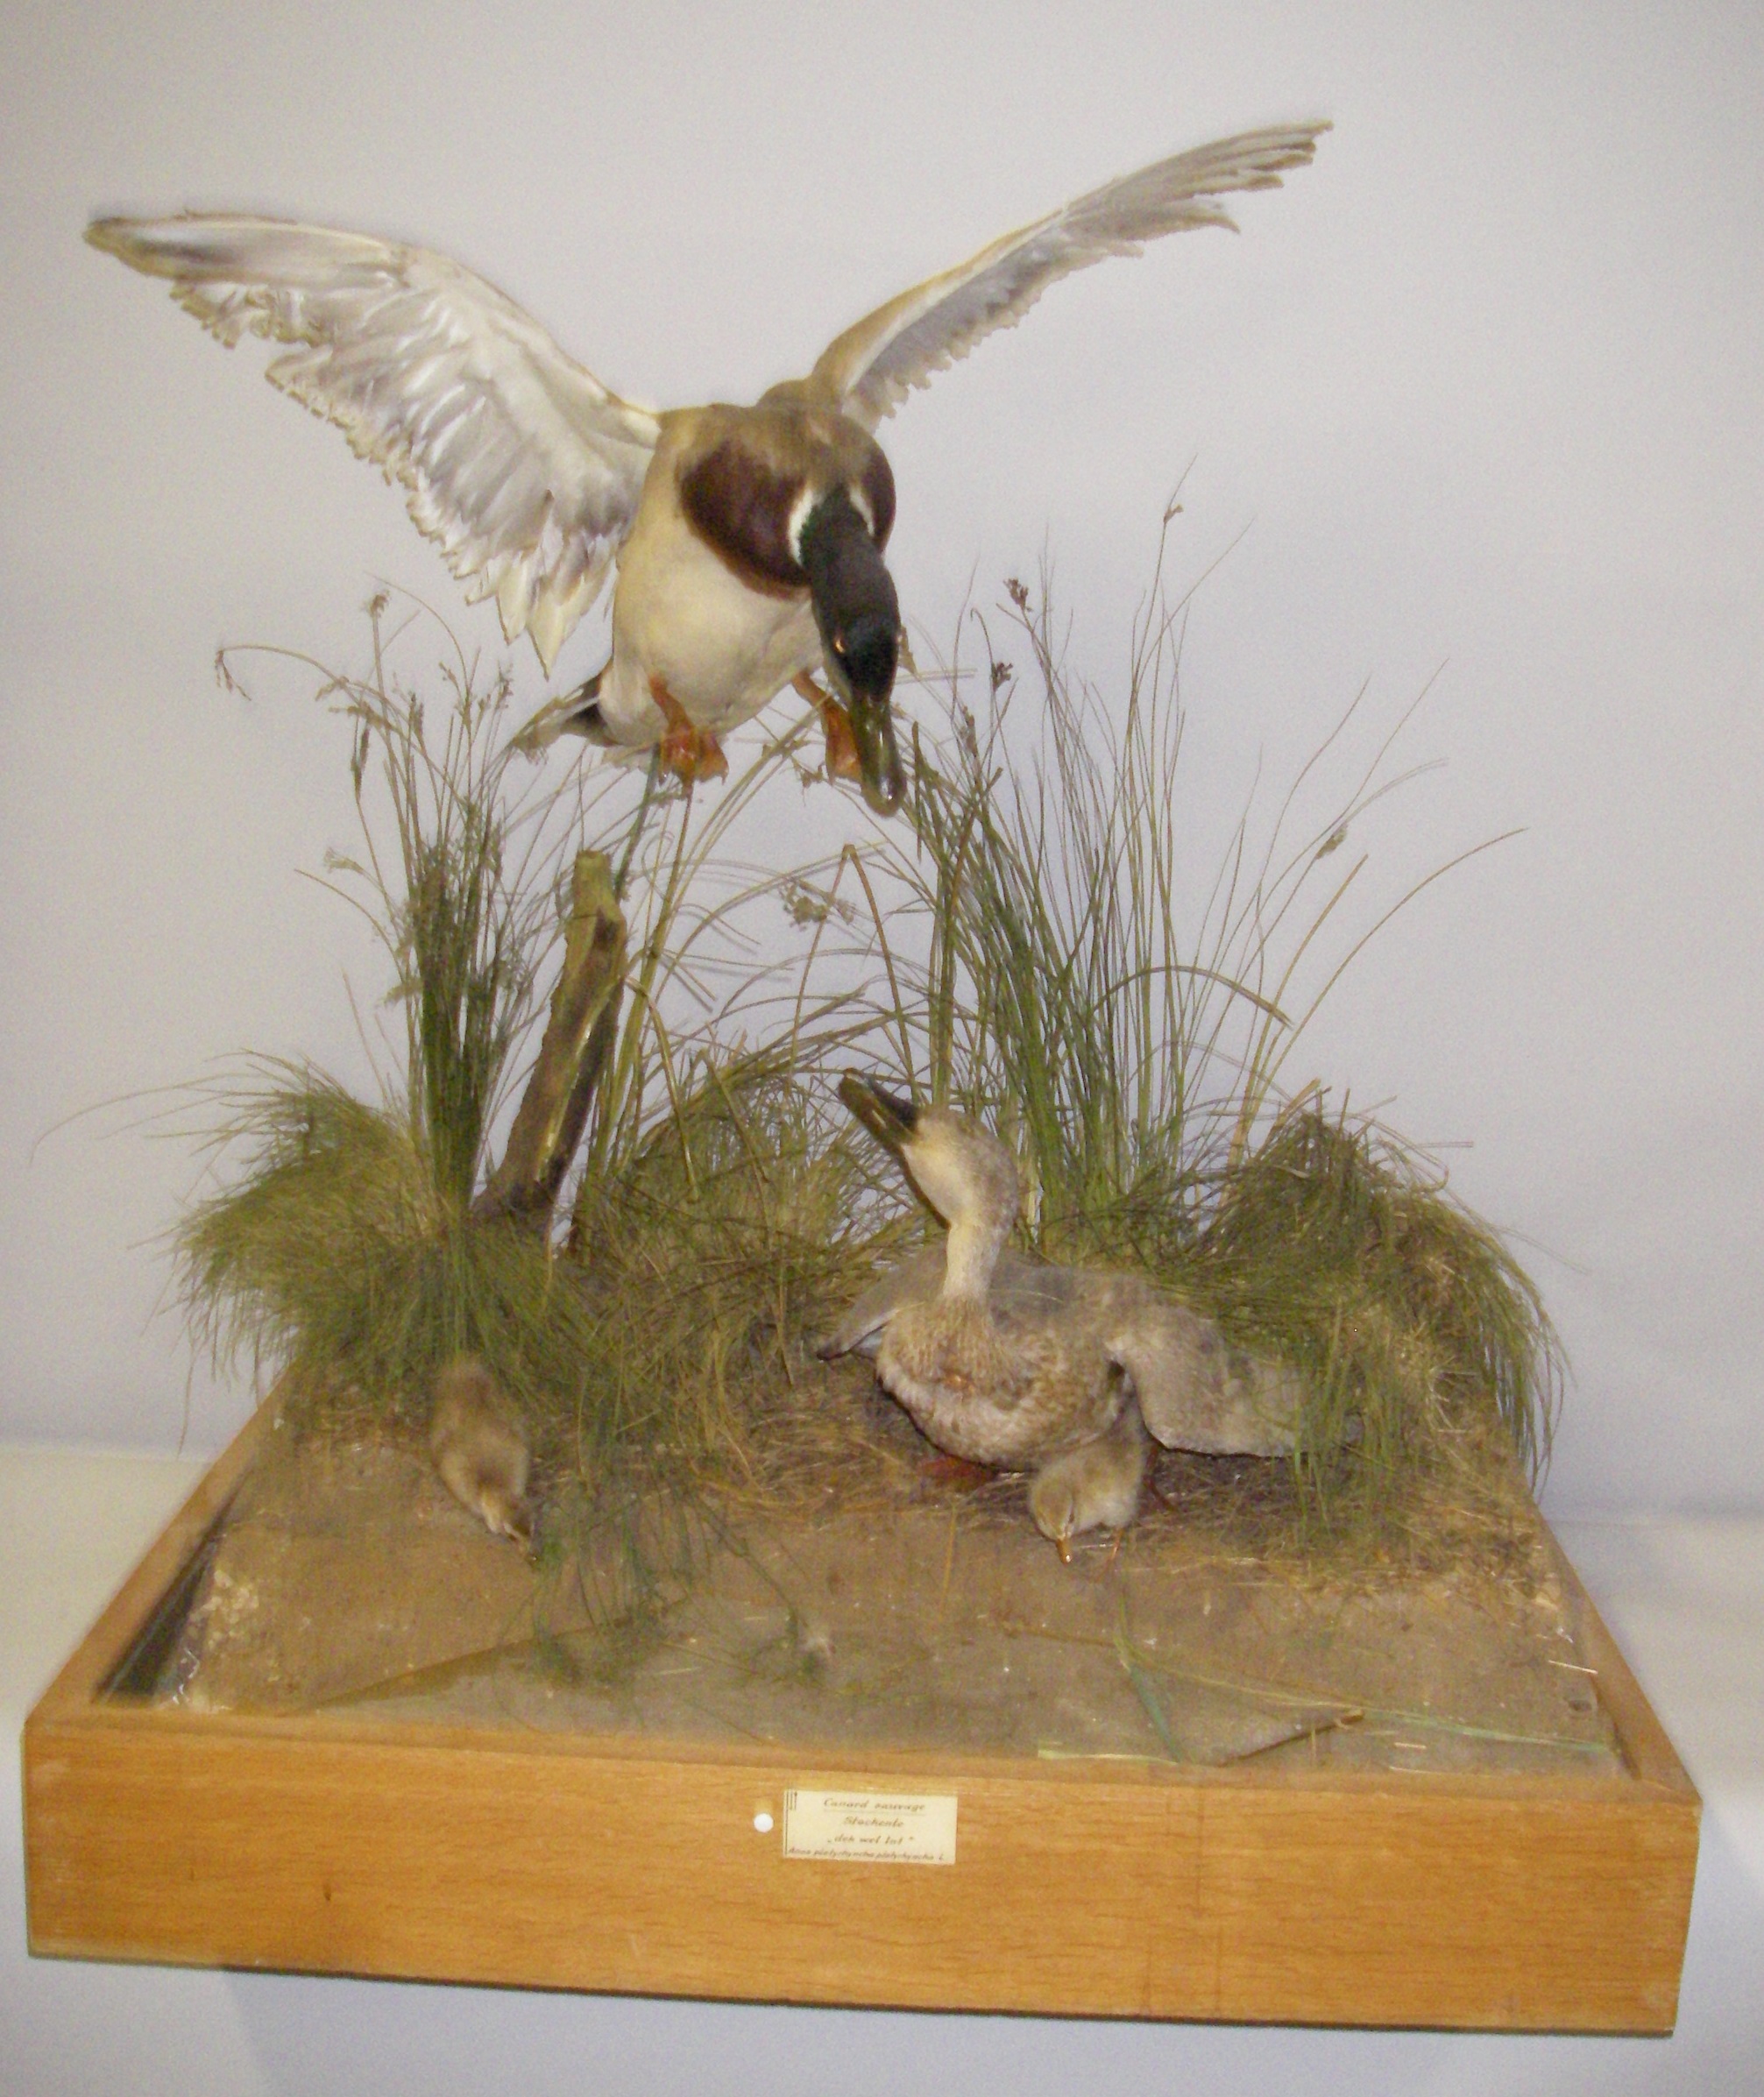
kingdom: Animalia
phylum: Chordata
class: Aves
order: Anseriformes
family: Anatidae
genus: Anas
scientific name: Anas platyrhynchos
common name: Mallard
